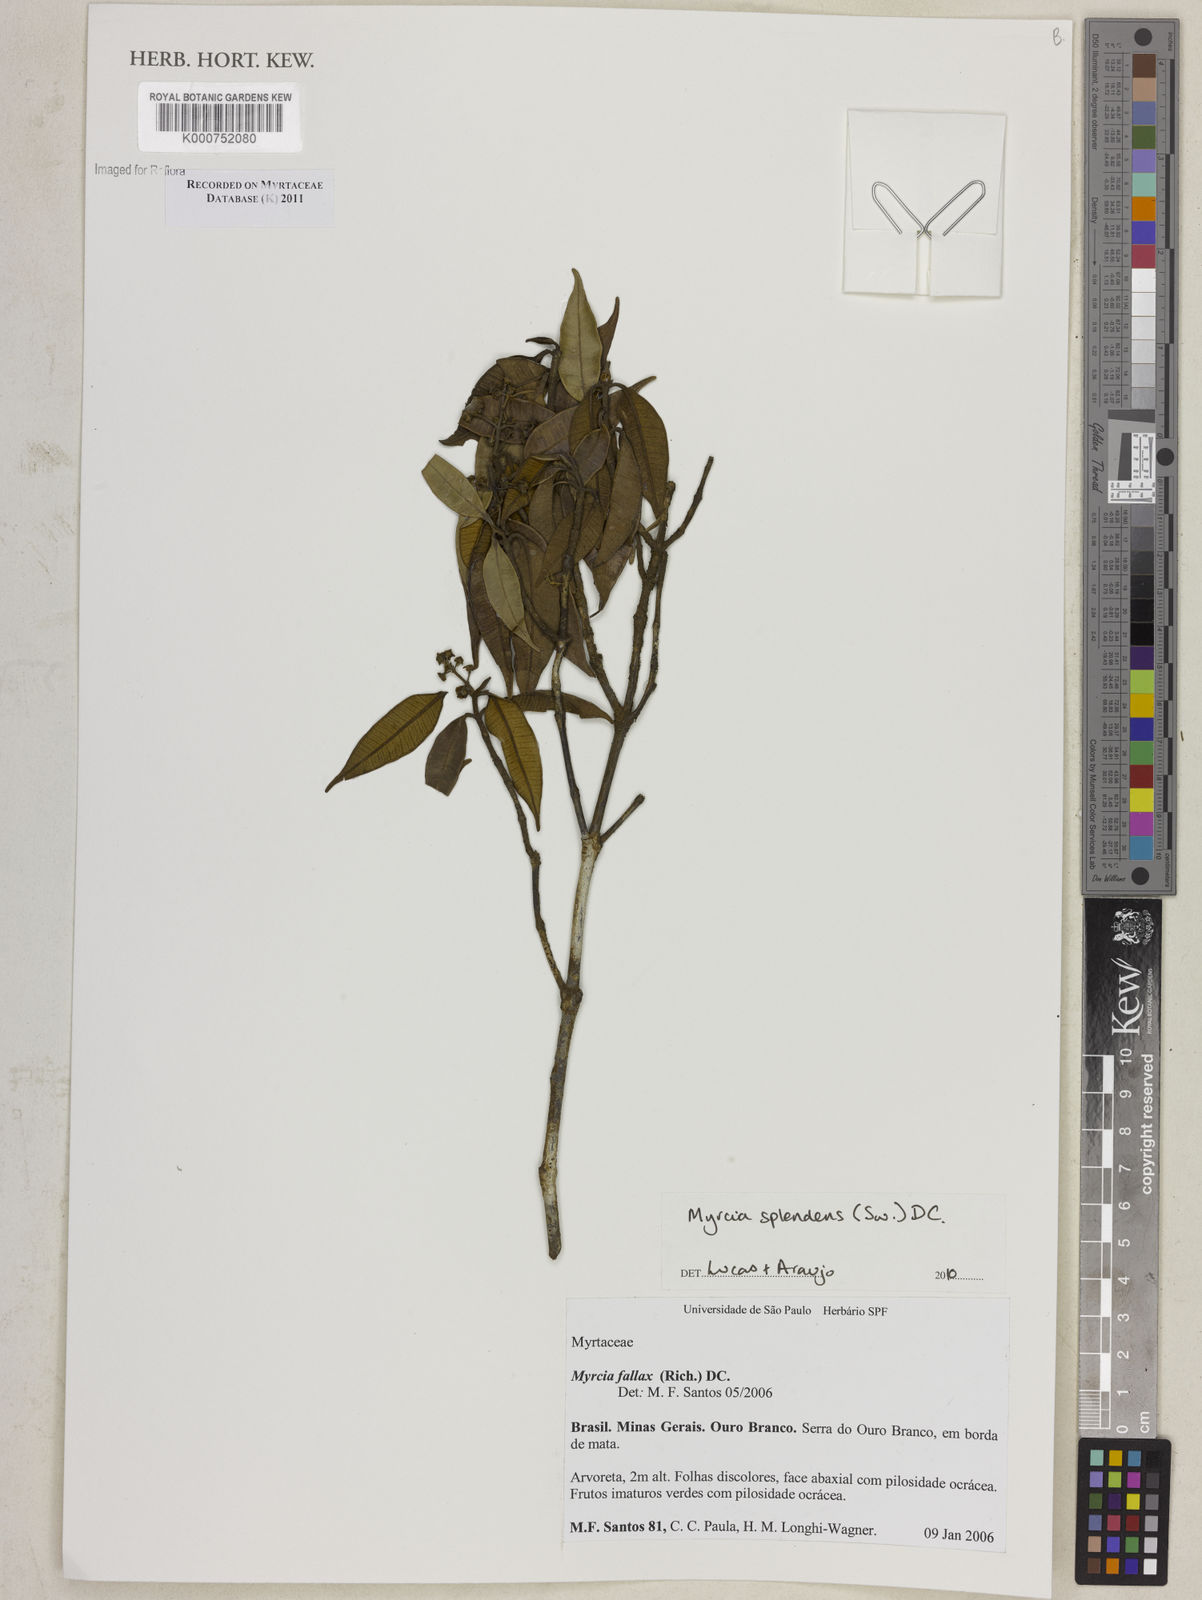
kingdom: Plantae
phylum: Tracheophyta
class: Magnoliopsida
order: Myrtales
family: Myrtaceae
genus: Myrcia
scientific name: Myrcia splendens
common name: Surinam cherry
